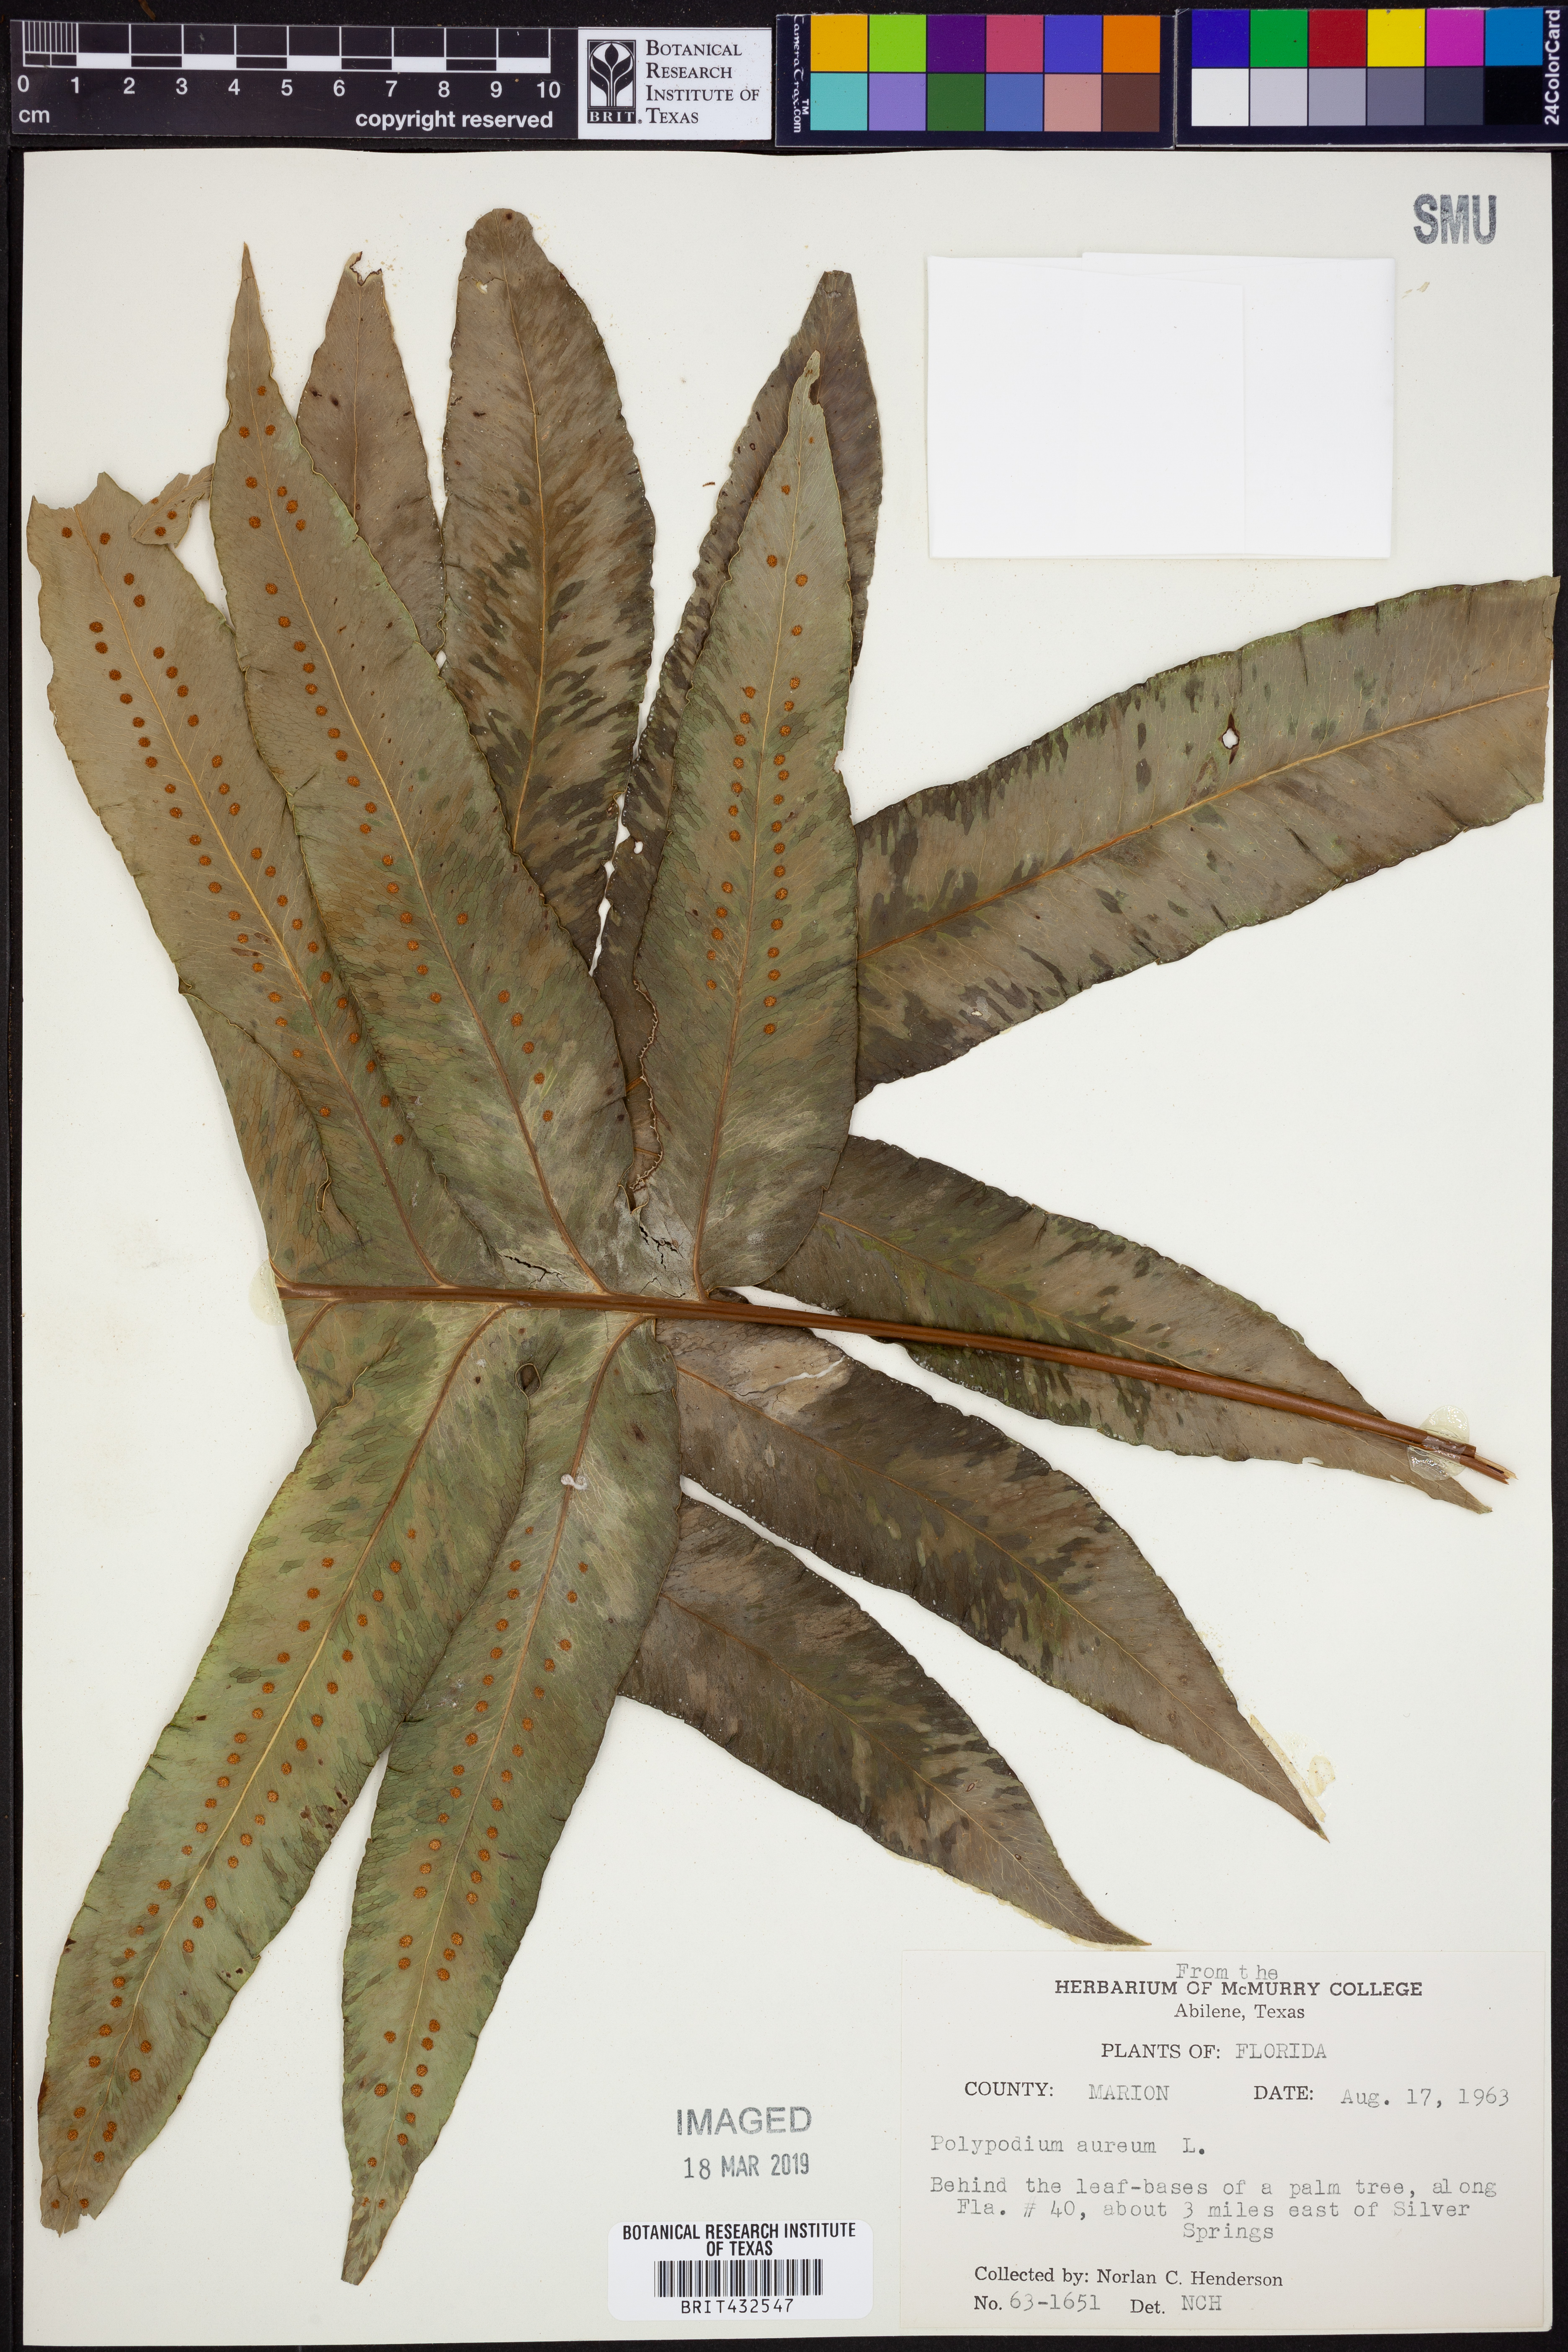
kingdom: Plantae
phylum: Tracheophyta
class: Polypodiopsida
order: Polypodiales
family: Polypodiaceae
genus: Phlebodium
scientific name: Phlebodium aureum
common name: Gold-foot fern
